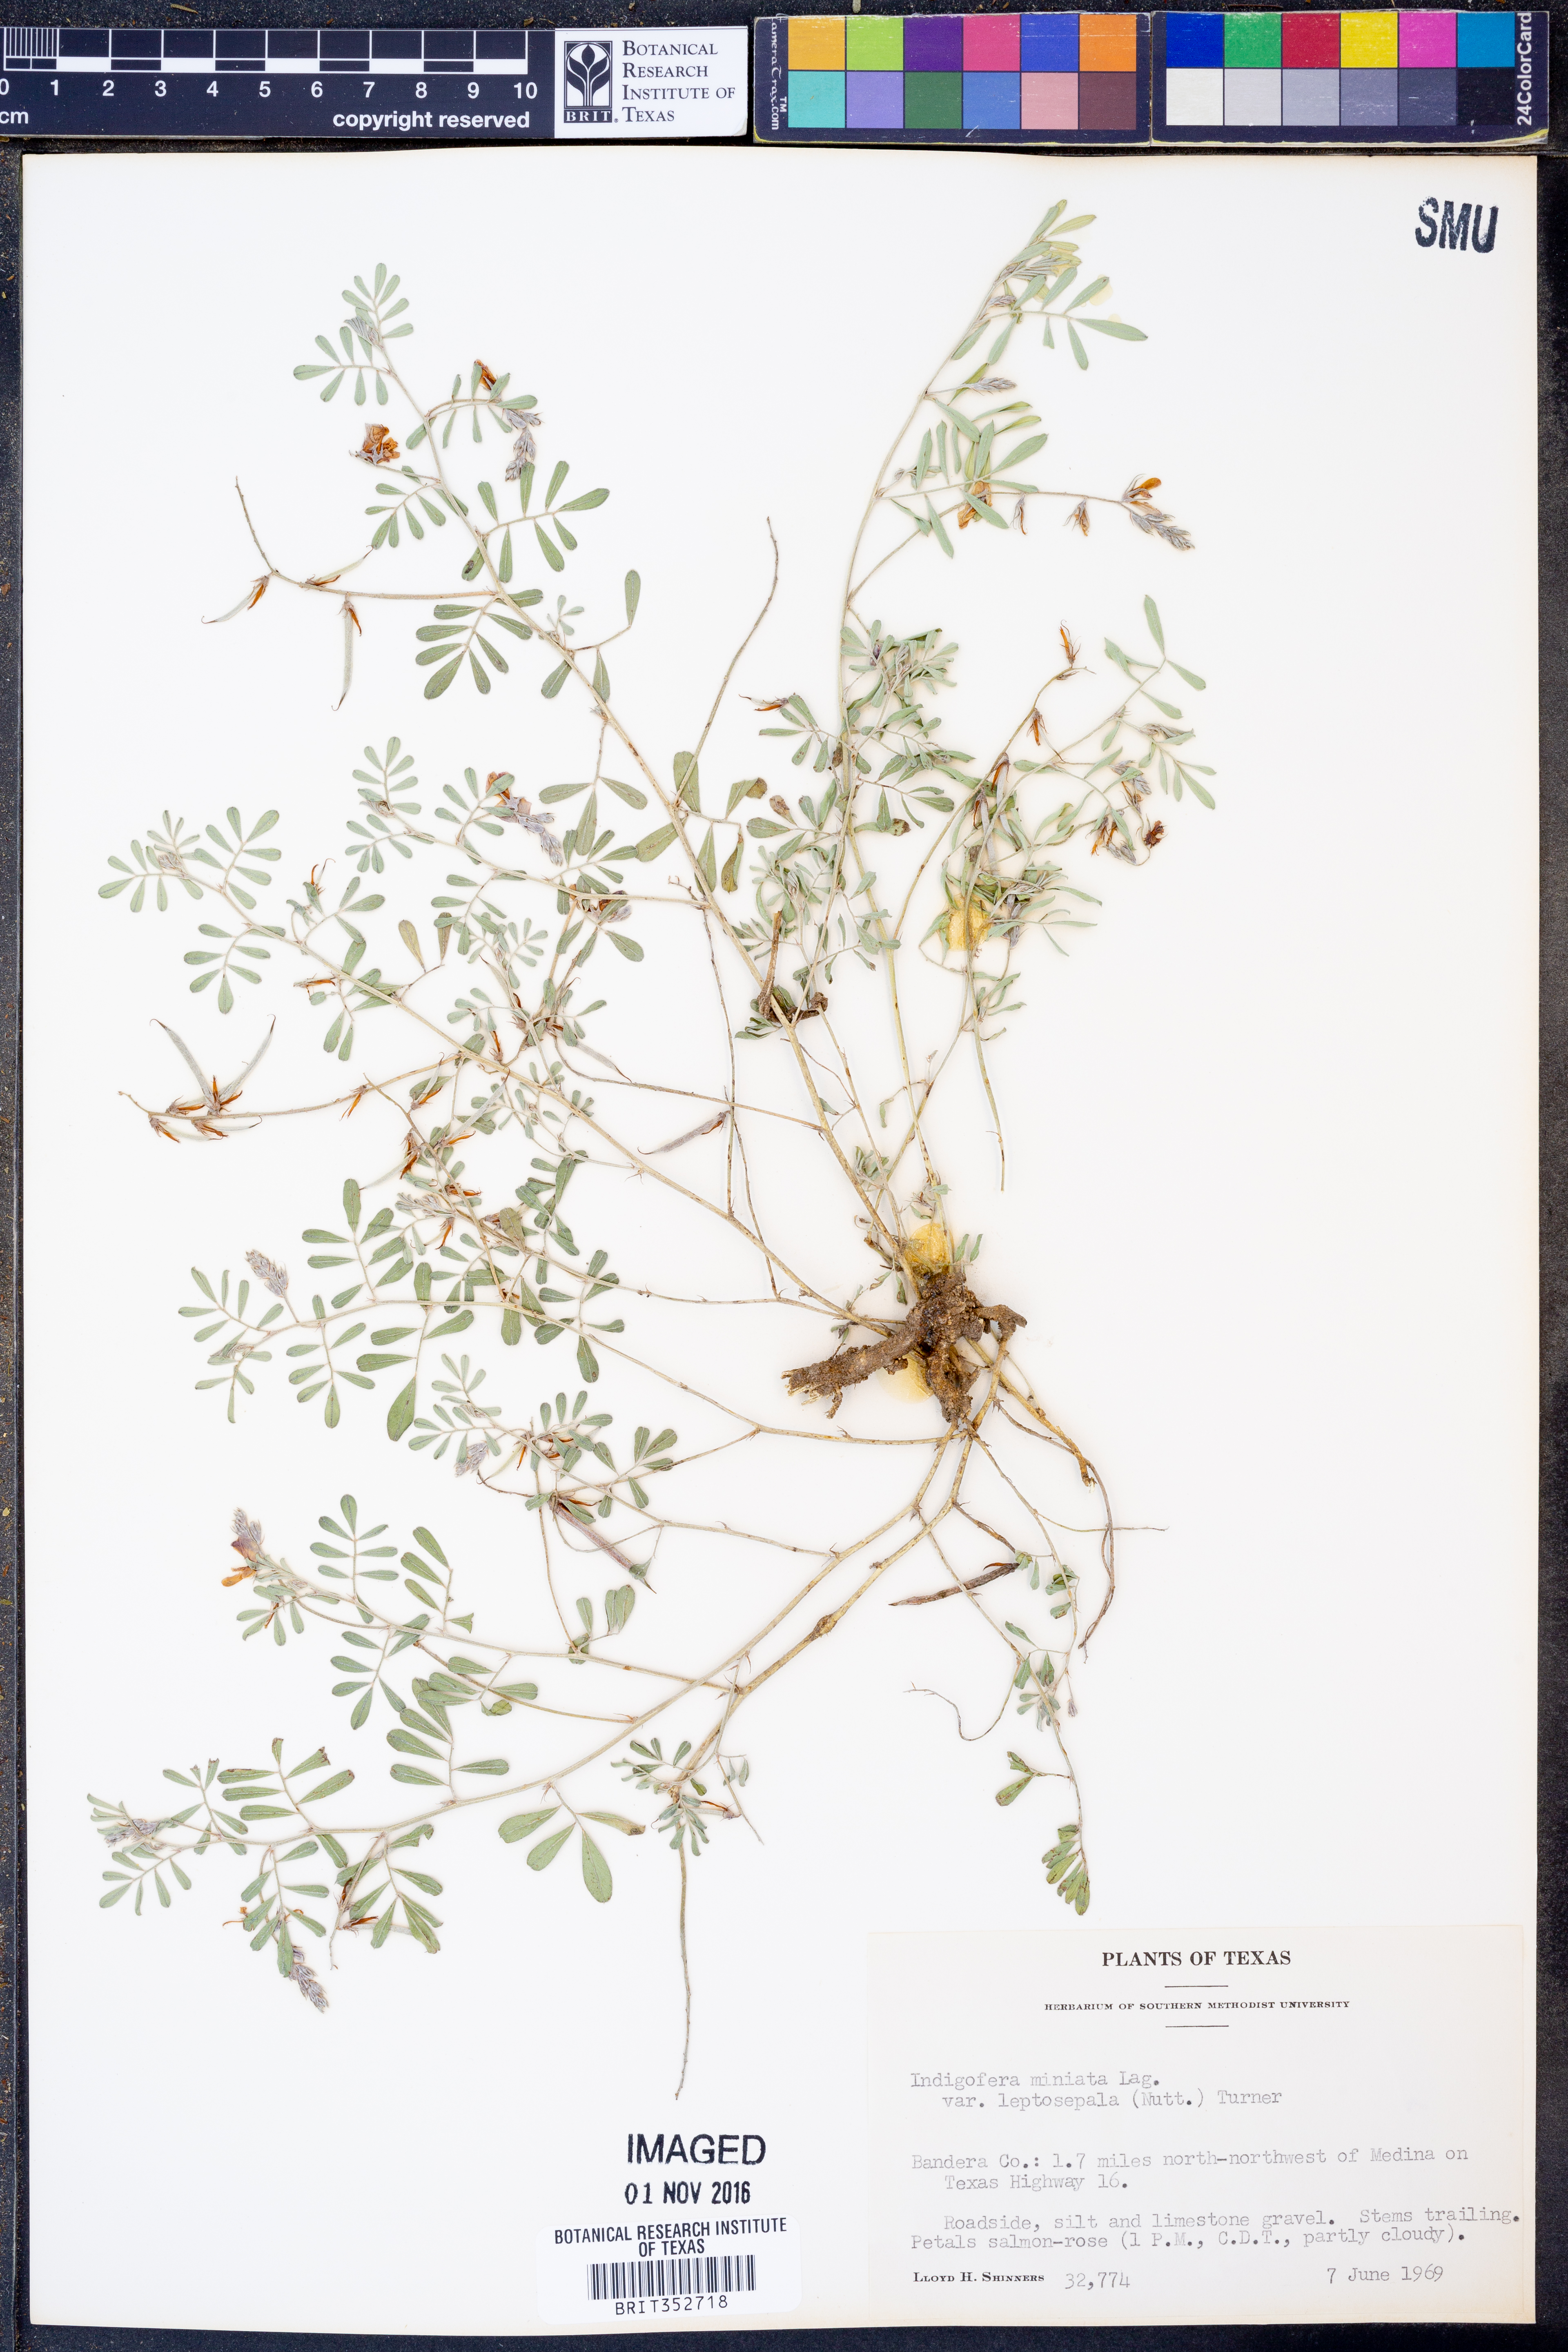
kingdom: Plantae
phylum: Tracheophyta
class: Magnoliopsida
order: Fabales
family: Fabaceae
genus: Indigofera
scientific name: Indigofera miniata
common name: Coast indigo
